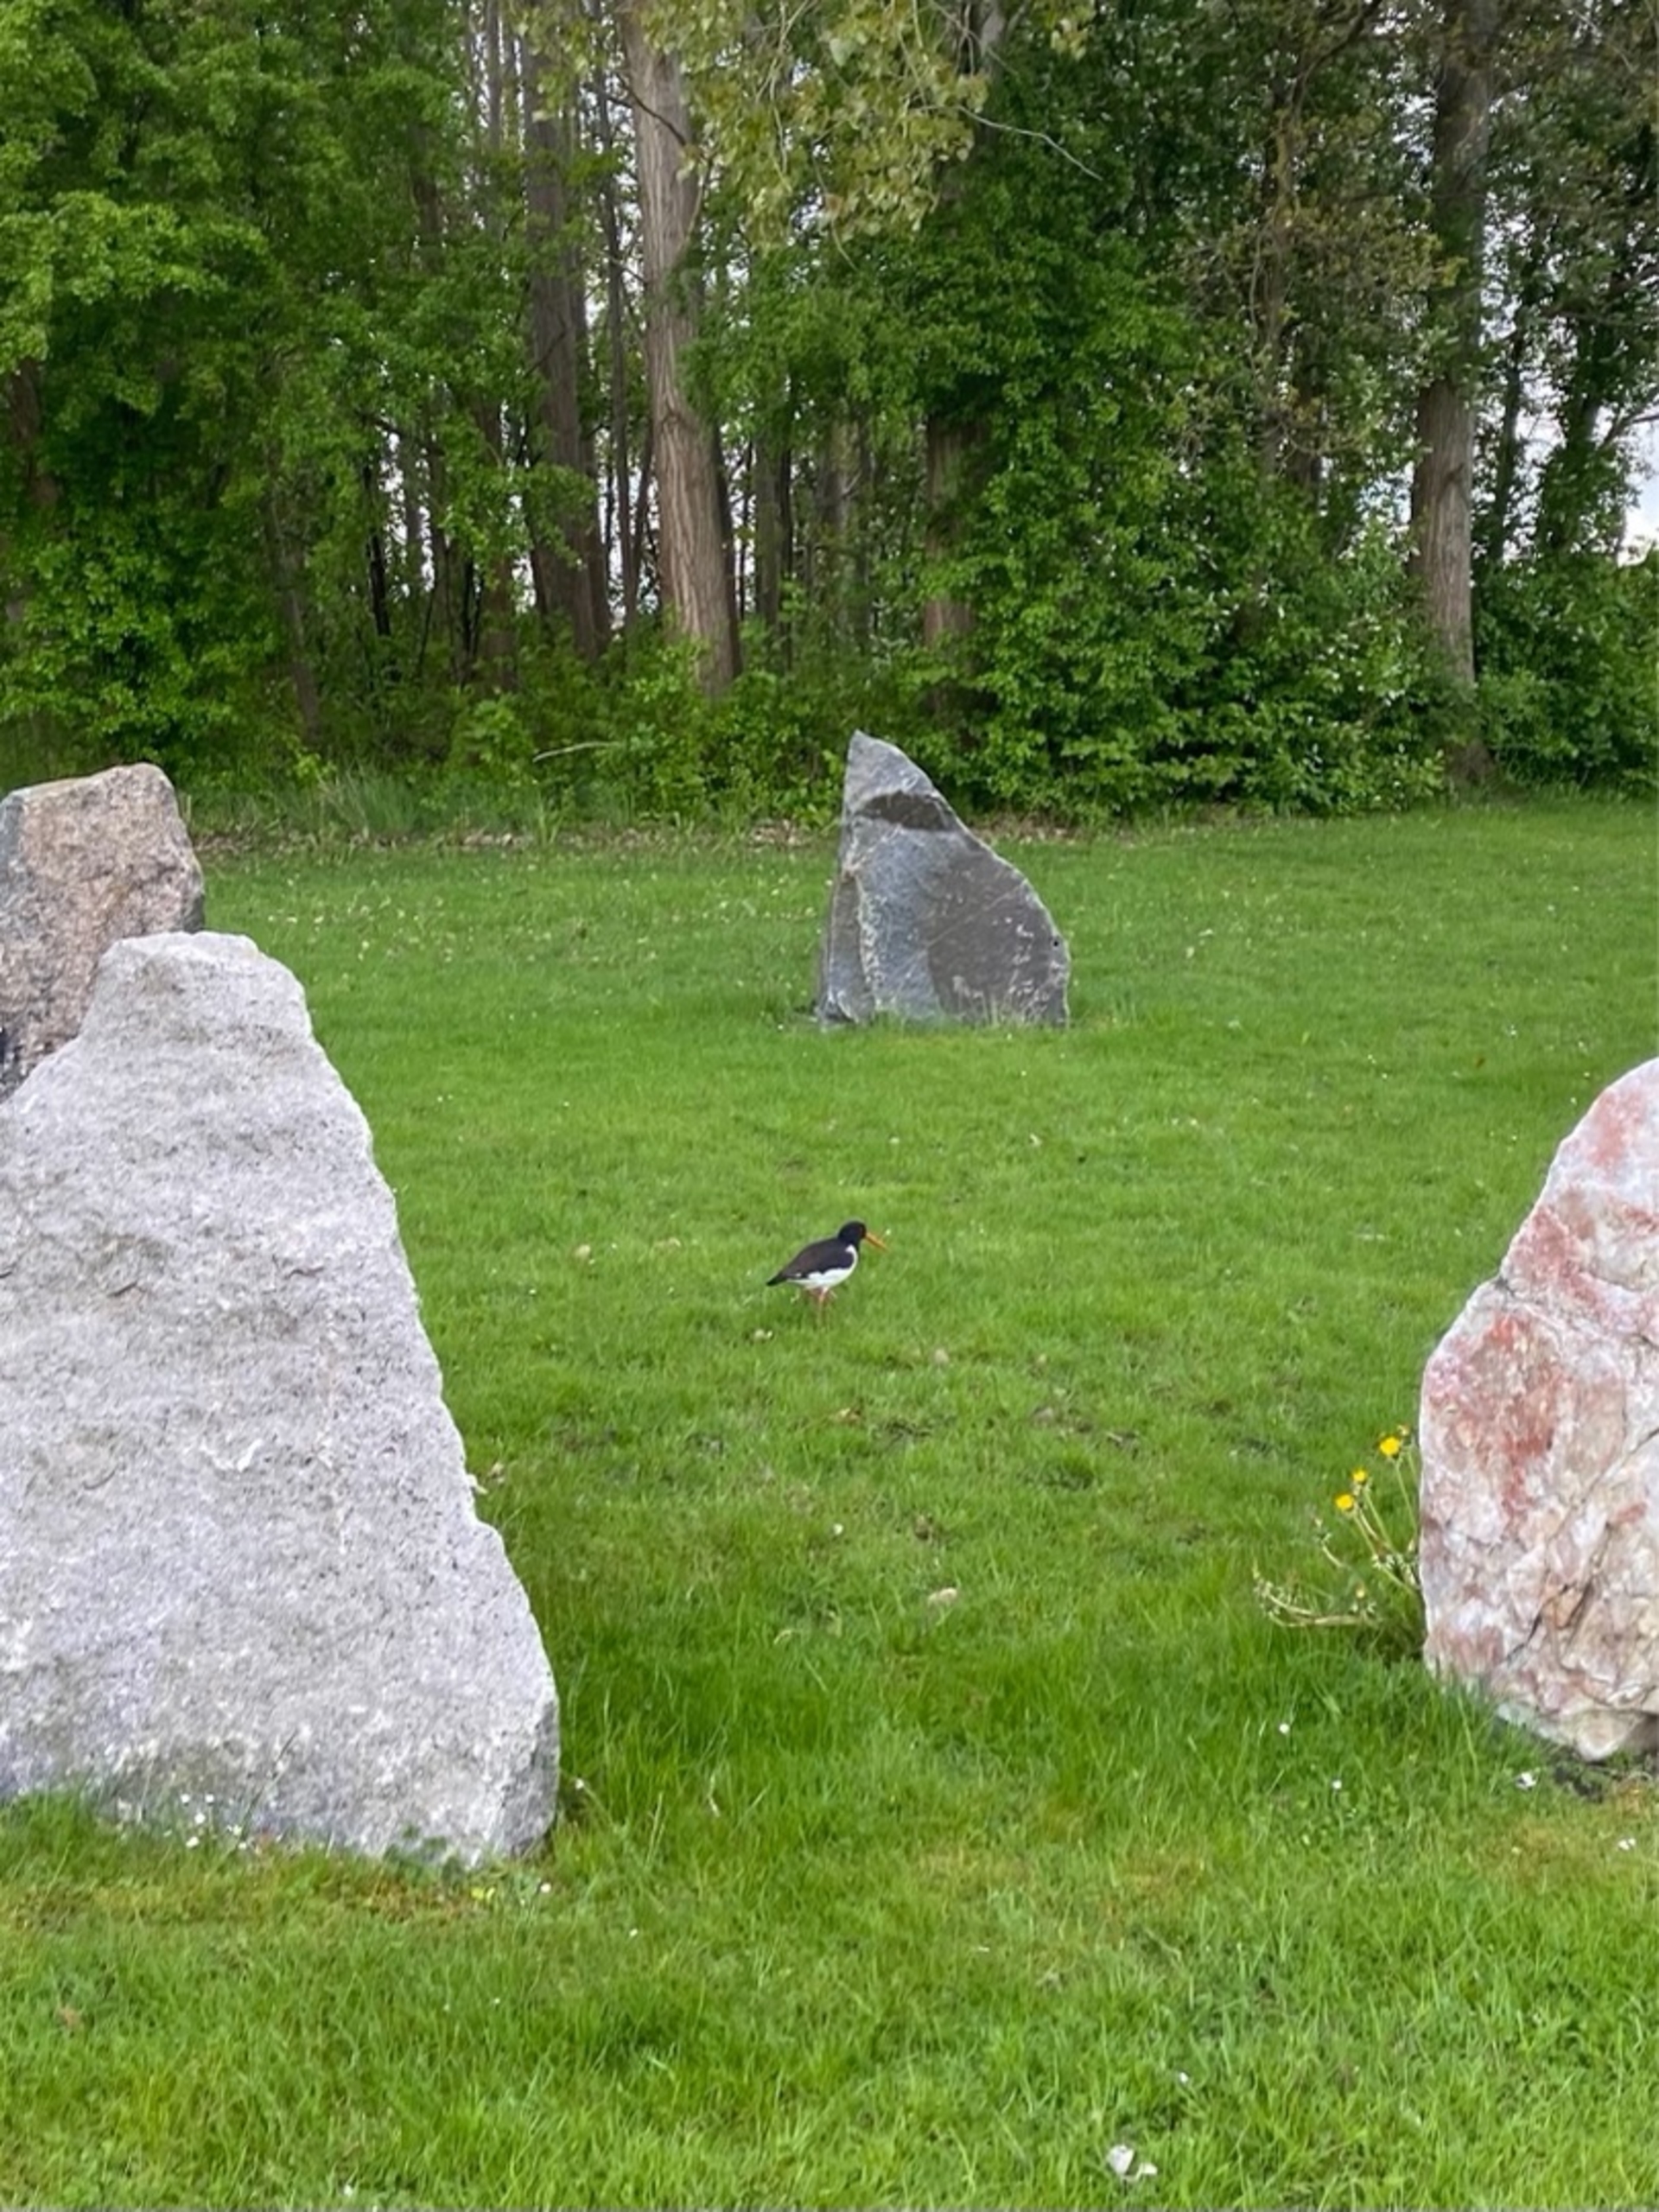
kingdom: Animalia
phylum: Chordata
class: Aves
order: Charadriiformes
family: Haematopodidae
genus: Haematopus
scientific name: Haematopus ostralegus
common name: Strandskade
